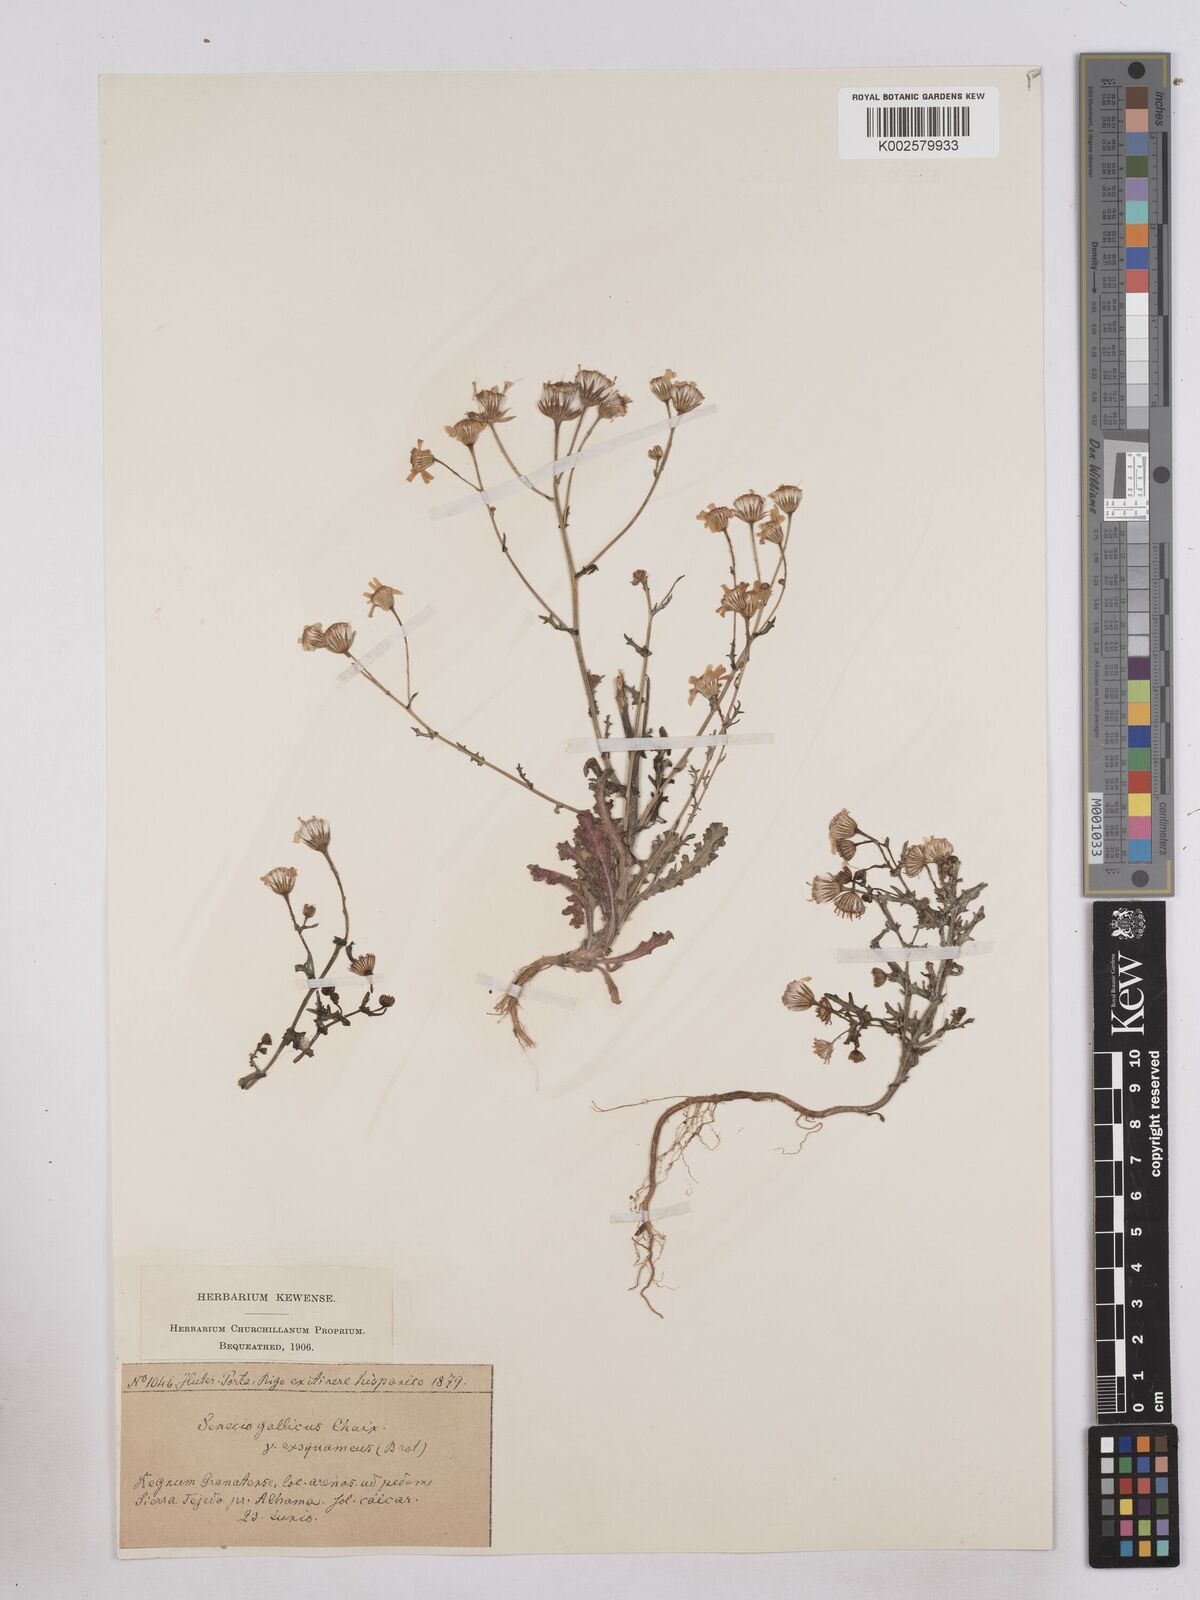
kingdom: Plantae
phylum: Tracheophyta
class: Magnoliopsida
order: Asterales
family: Asteraceae
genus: Senecio
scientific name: Senecio gallicus
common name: French groundsel
